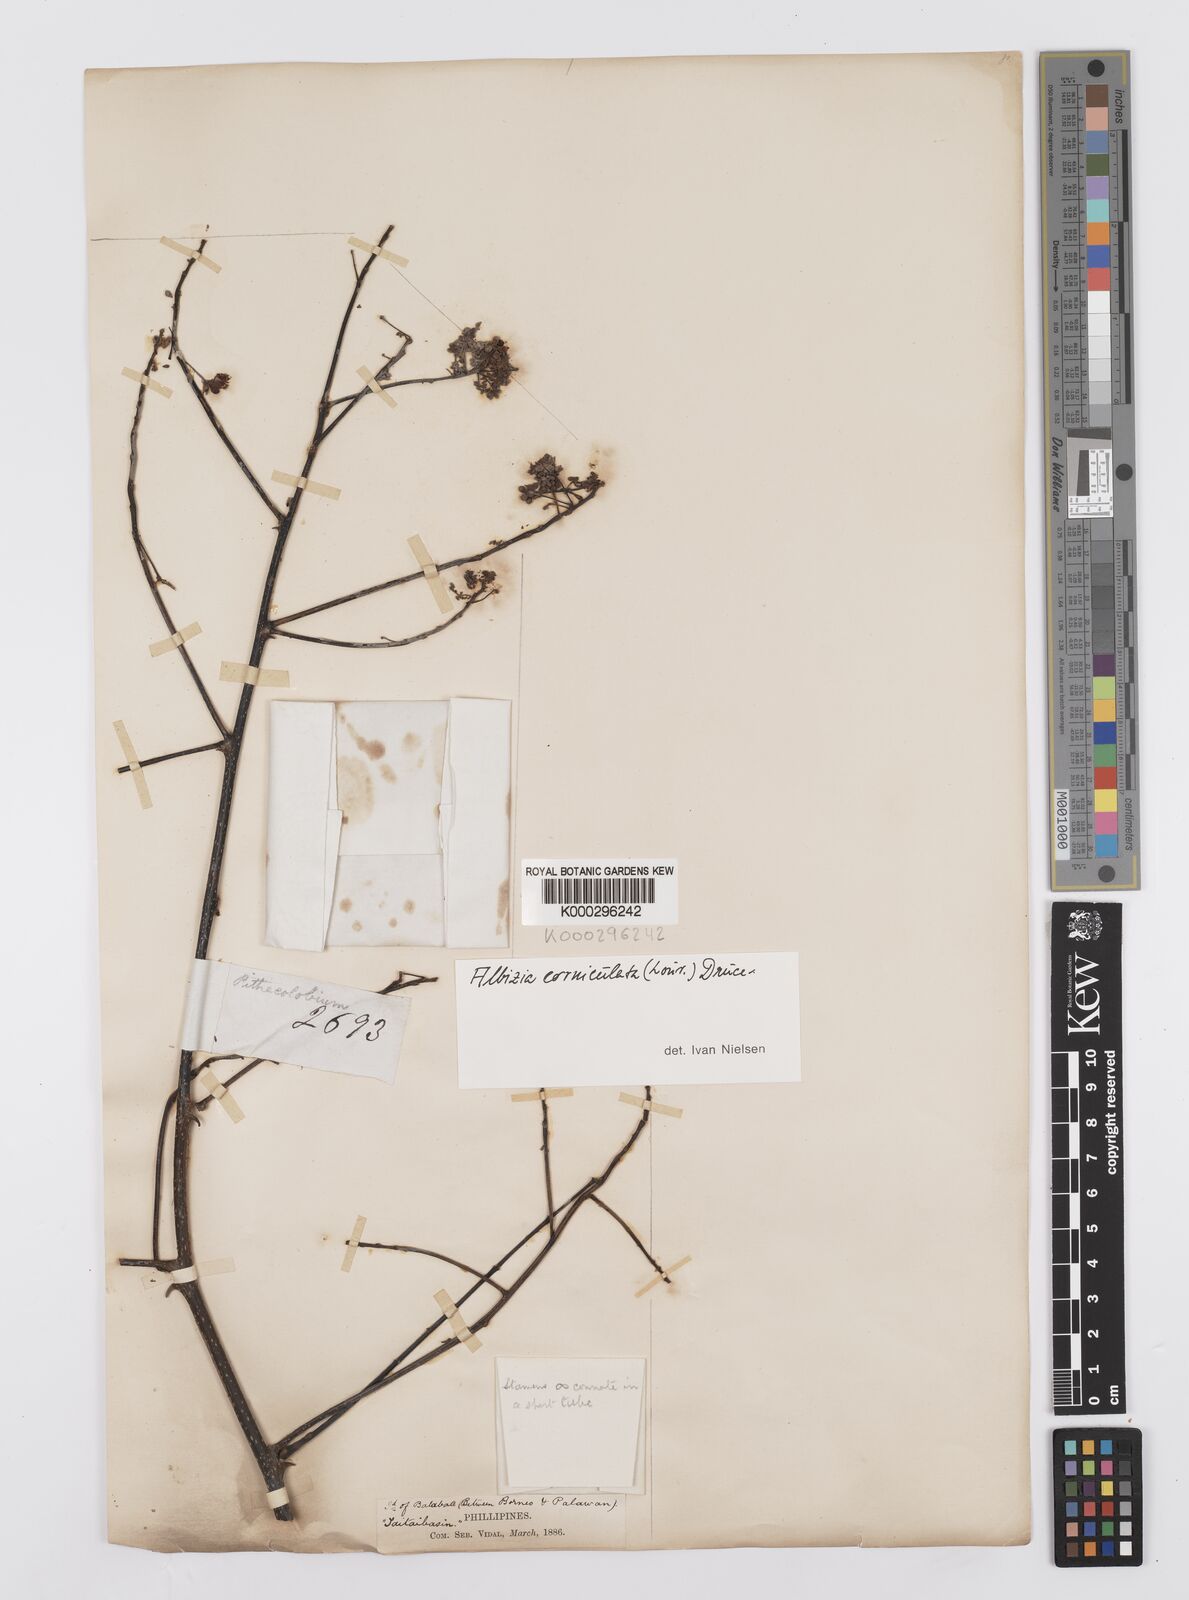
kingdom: Plantae
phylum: Tracheophyta
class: Magnoliopsida
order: Fabales
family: Fabaceae
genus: Albizia
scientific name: Albizia corniculata
